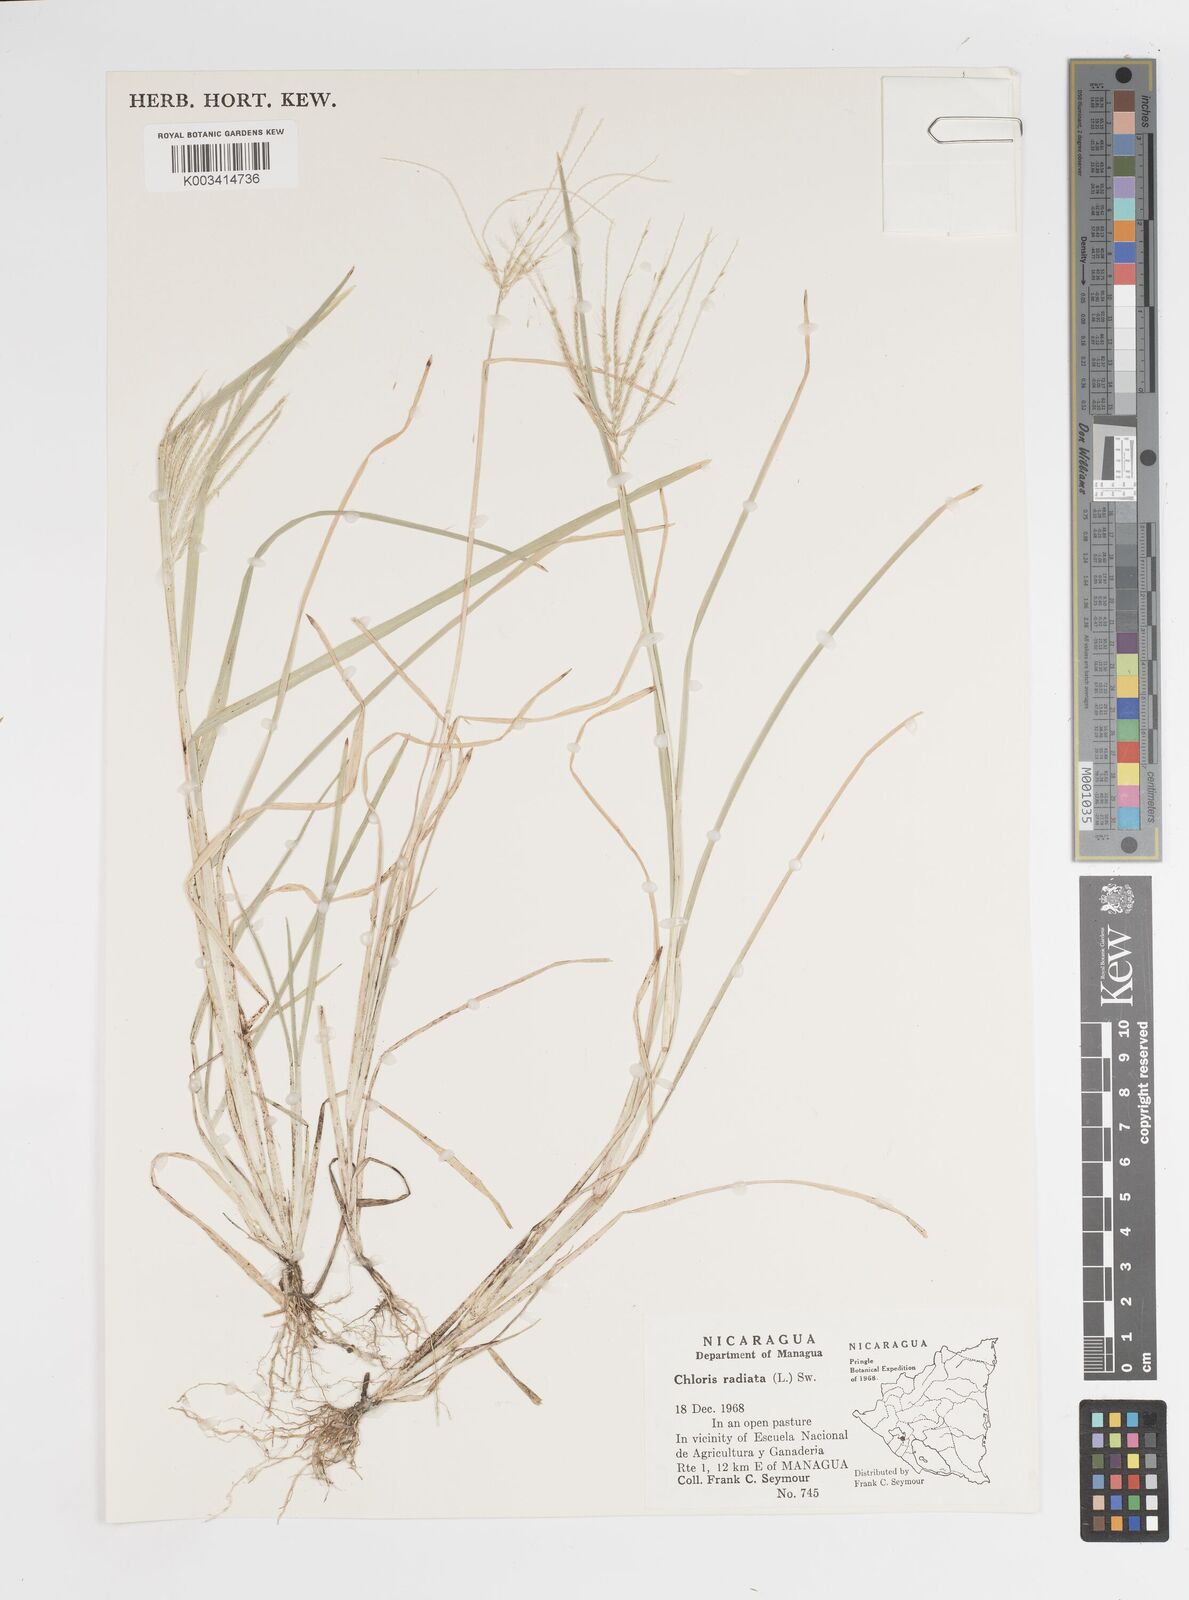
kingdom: Plantae
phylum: Tracheophyta
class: Liliopsida
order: Poales
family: Poaceae
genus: Chloris
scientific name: Chloris radiata
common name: Radiate fingergrass
